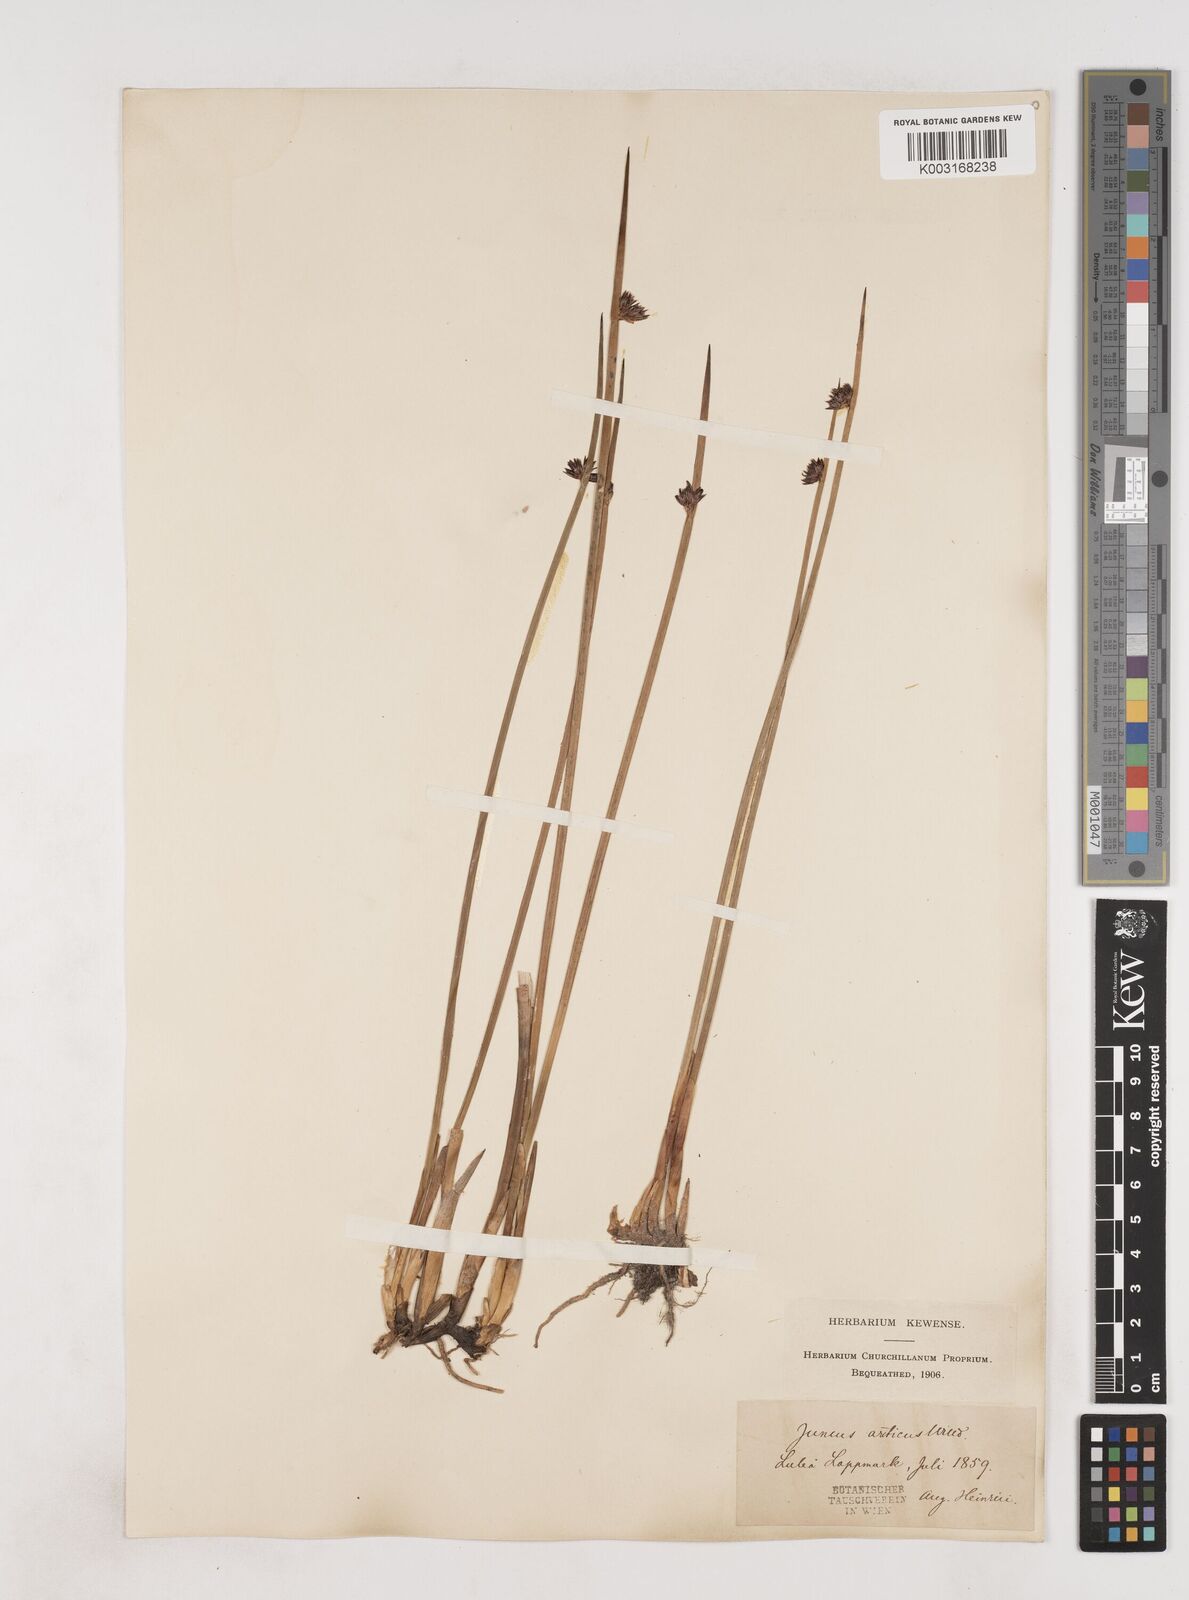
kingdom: Plantae
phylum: Tracheophyta
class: Liliopsida
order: Poales
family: Juncaceae
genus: Juncus
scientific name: Juncus arcticus
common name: Arctic rush
